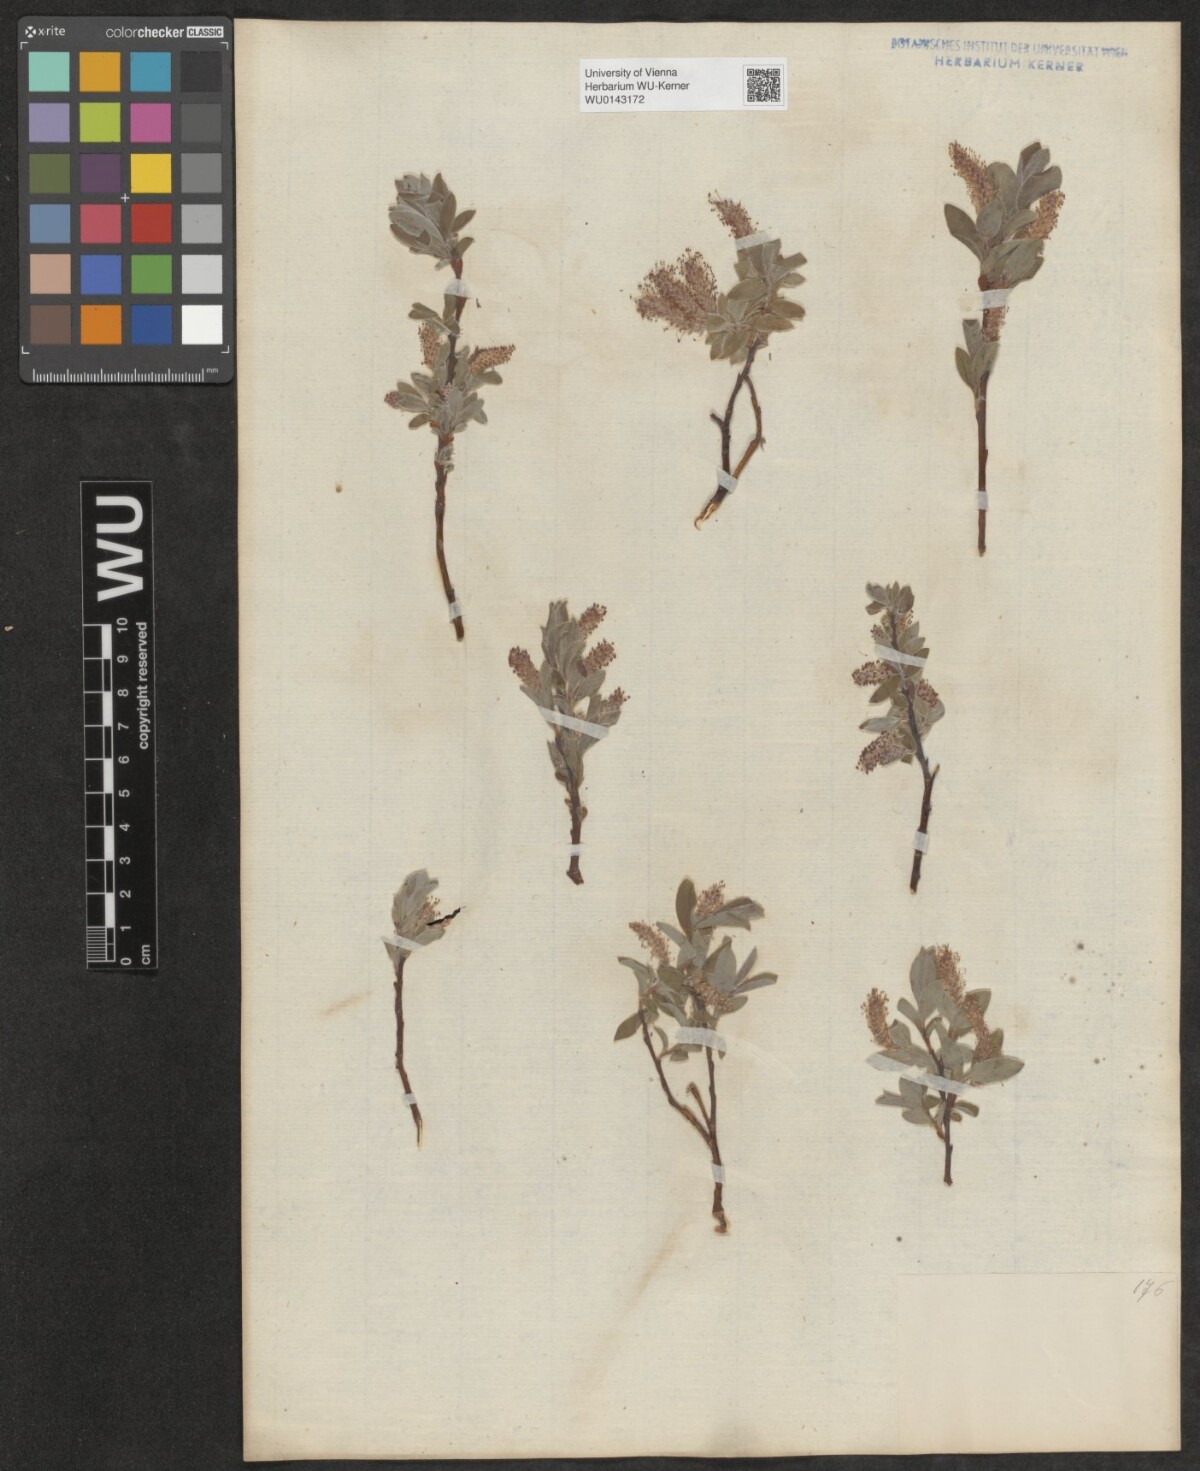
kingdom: Plantae
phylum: Tracheophyta
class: Magnoliopsida
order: Malpighiales
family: Salicaceae
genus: Salix
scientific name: Salix pyrenaica
